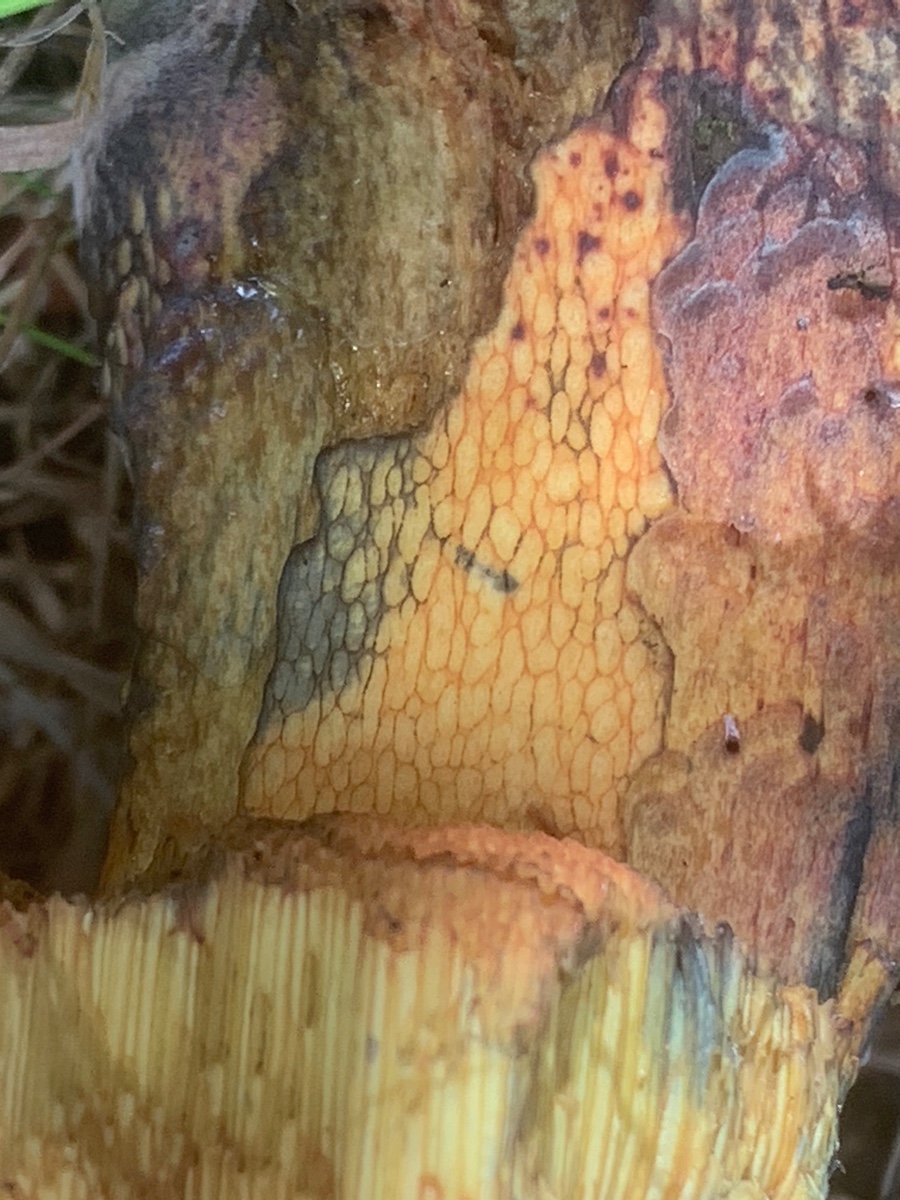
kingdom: Fungi
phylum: Basidiomycota
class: Agaricomycetes
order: Boletales
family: Boletaceae
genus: Suillellus
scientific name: Suillellus luridus
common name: netstokket indigorørhat
